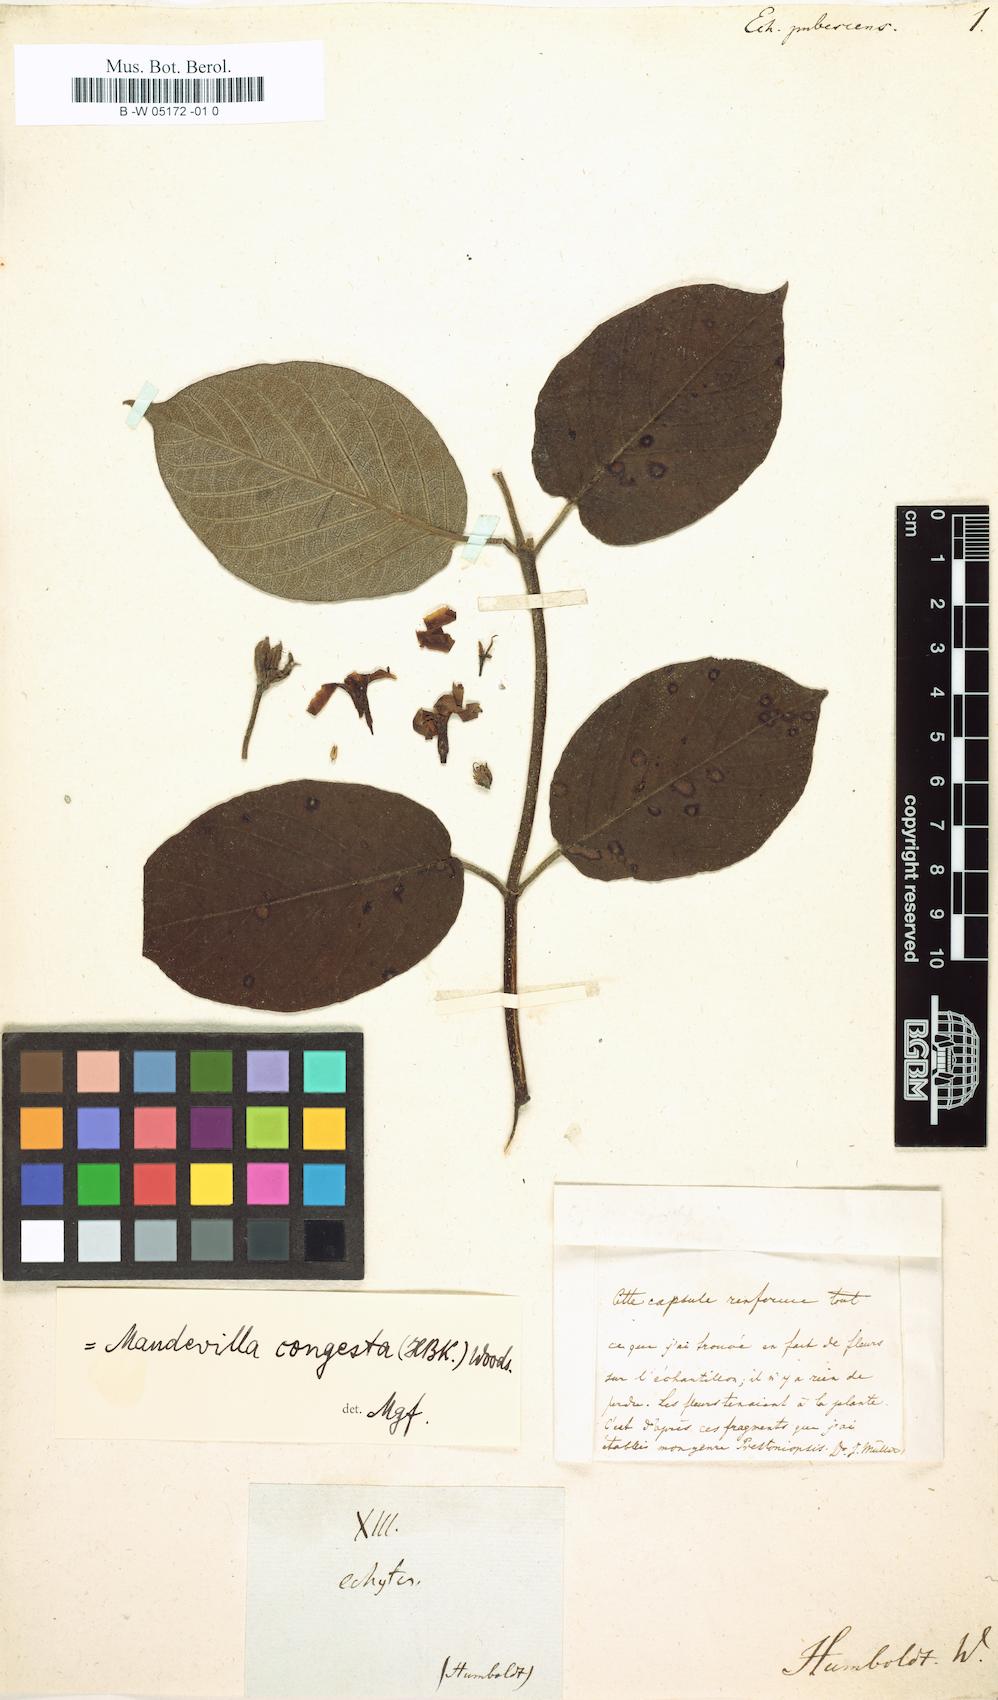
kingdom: Plantae
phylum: Tracheophyta
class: Magnoliopsida
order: Gentianales
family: Apocynaceae
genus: Mandevilla
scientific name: Mandevilla congesta
